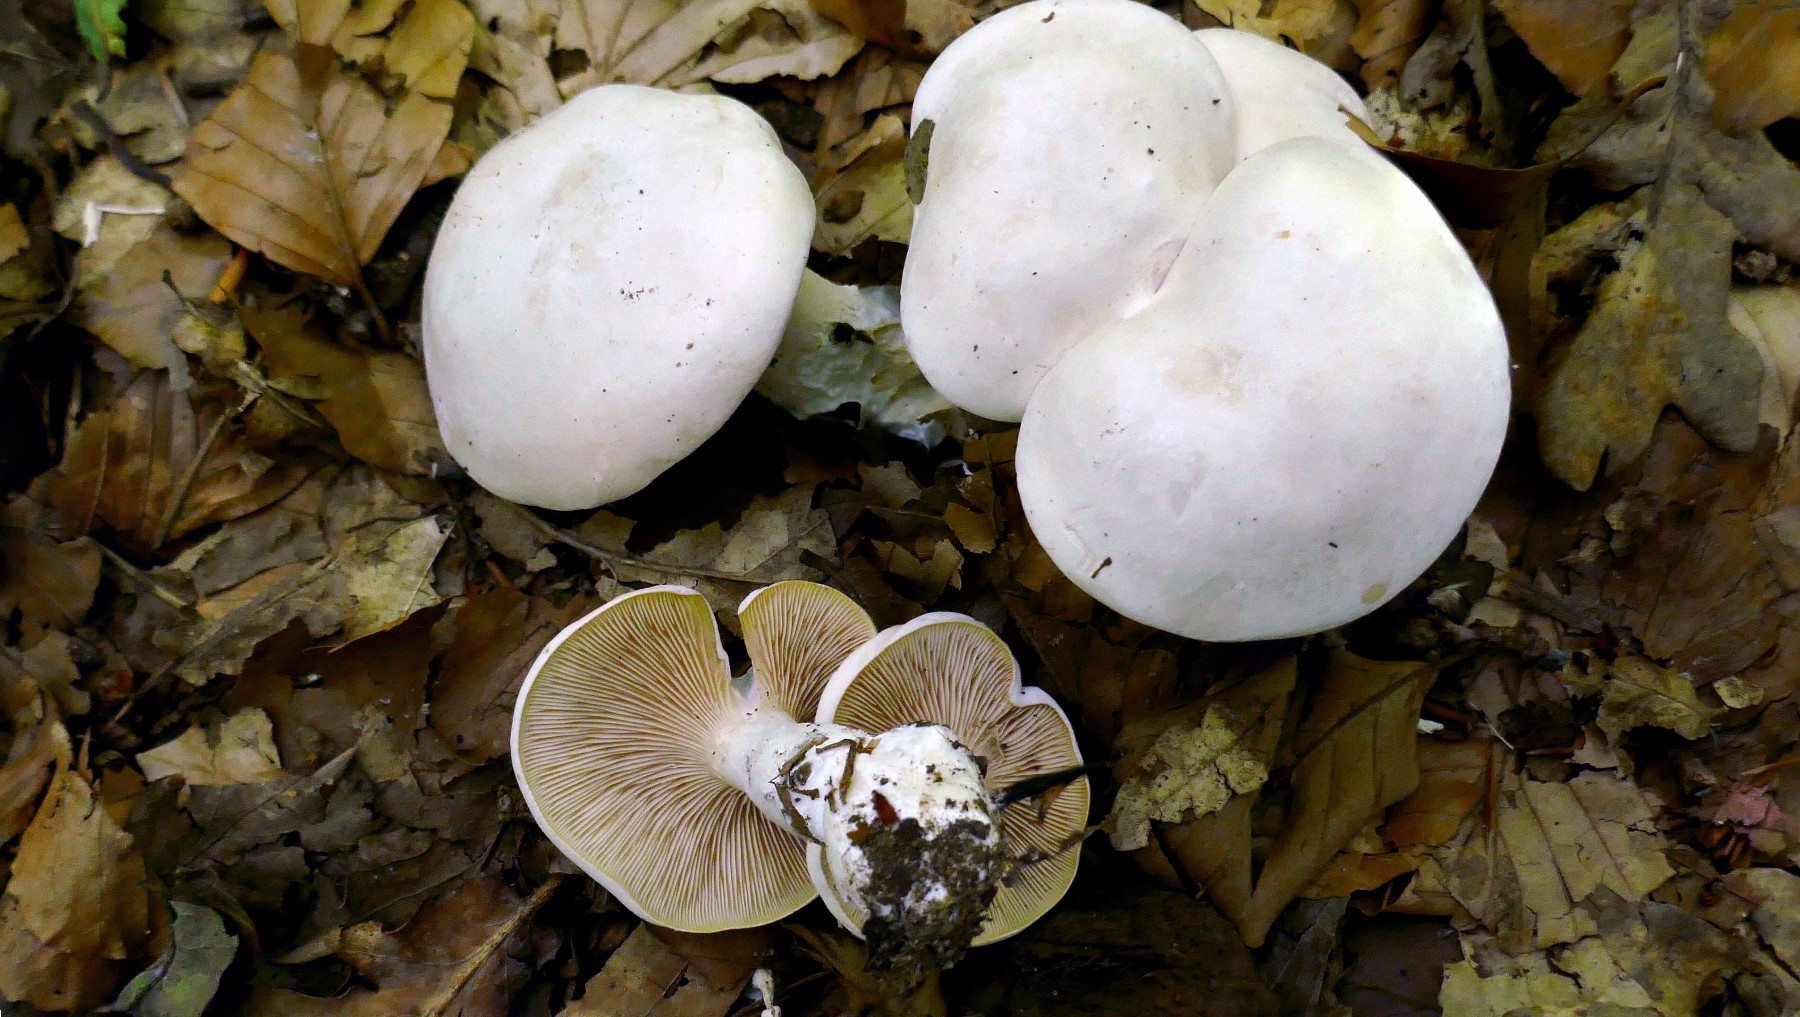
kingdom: Fungi
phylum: Basidiomycota
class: Agaricomycetes
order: Agaricales
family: Entolomataceae
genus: Clitopilus
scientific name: Clitopilus prunulus
